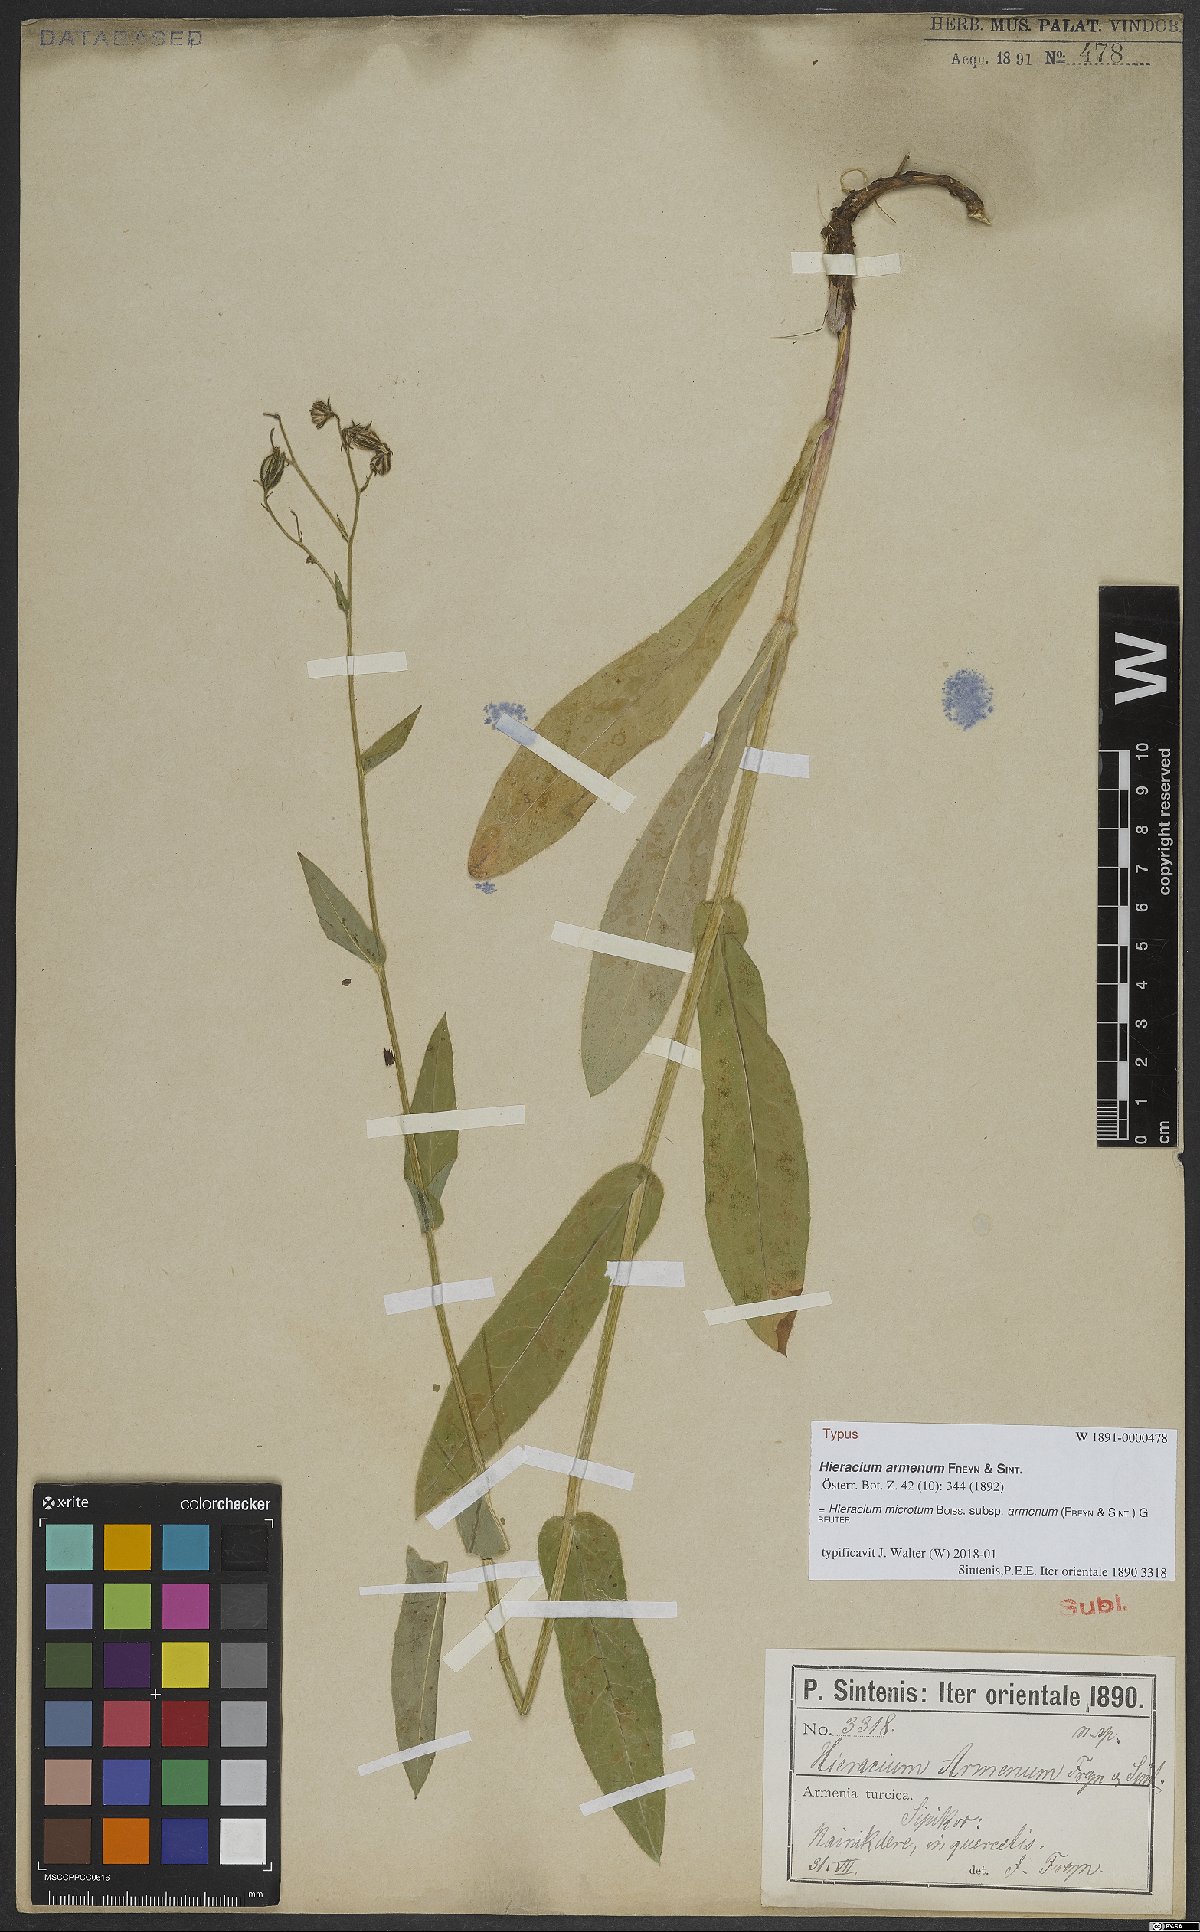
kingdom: Plantae
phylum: Tracheophyta
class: Magnoliopsida
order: Asterales
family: Asteraceae
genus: Hieracium
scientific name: Hieracium microtum
